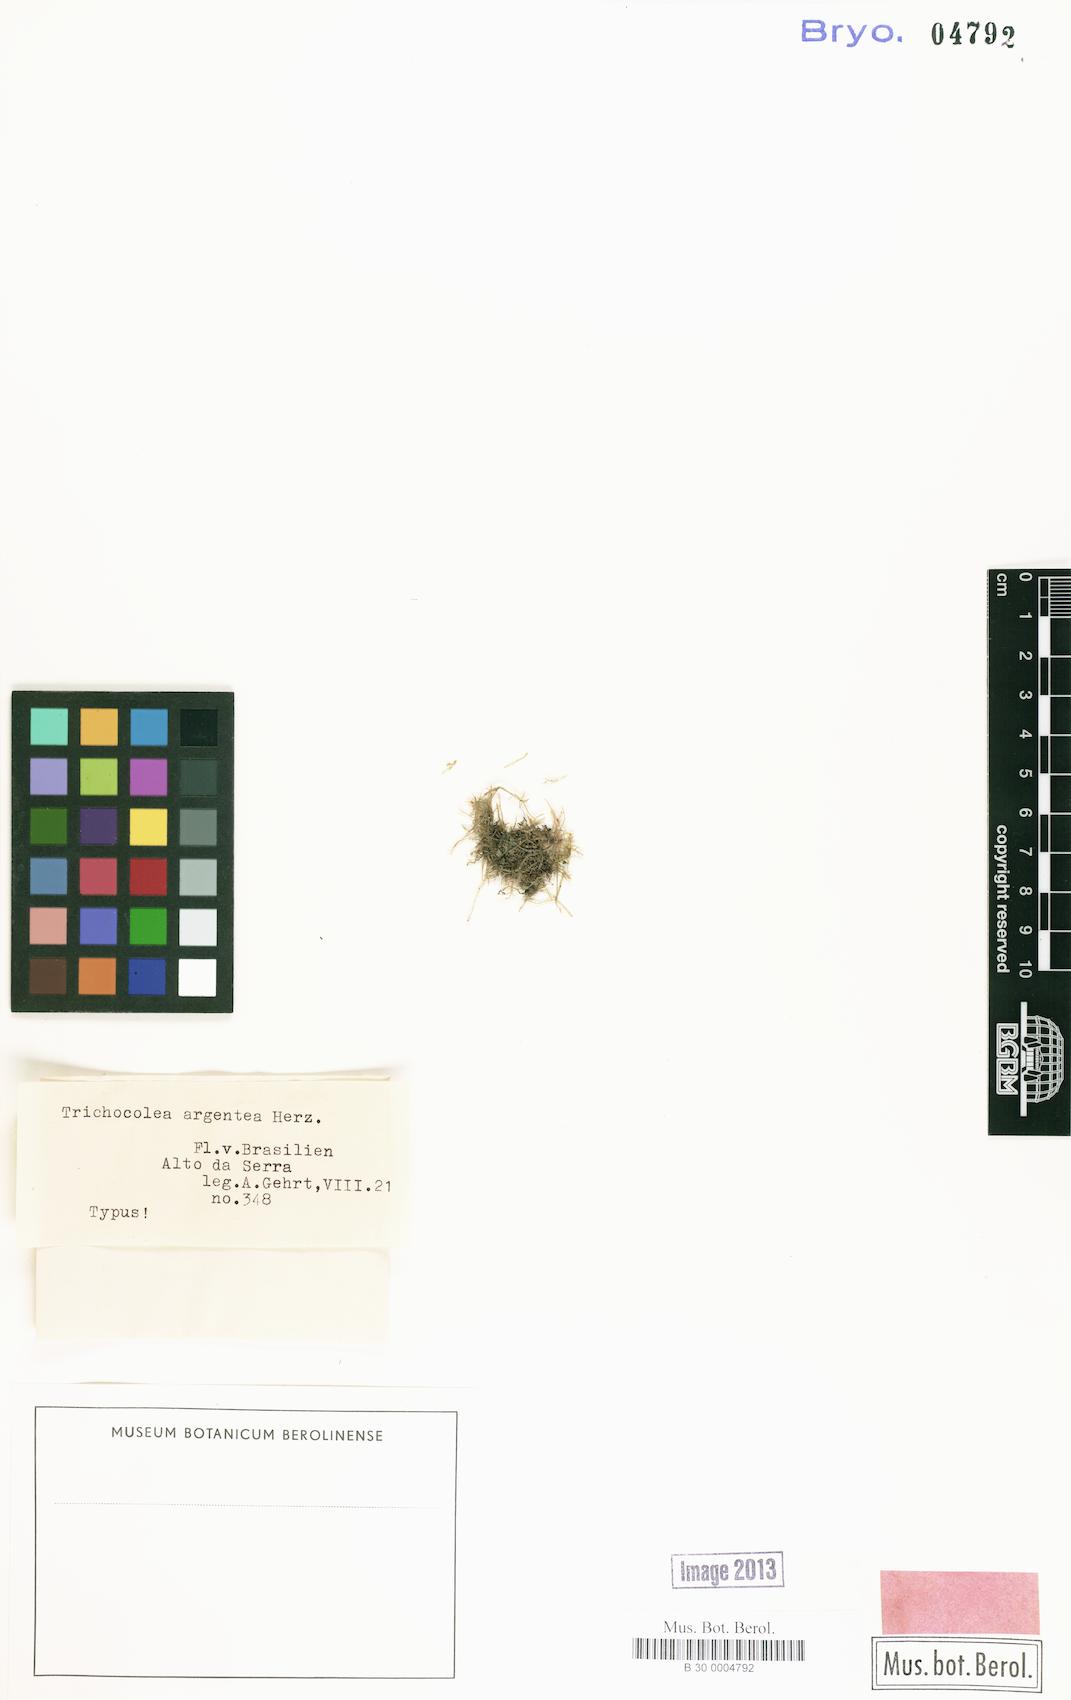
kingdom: Plantae
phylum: Marchantiophyta
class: Jungermanniopsida
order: Jungermanniales
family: Trichocoleaceae
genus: Leiomitra
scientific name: Leiomitra argentea
